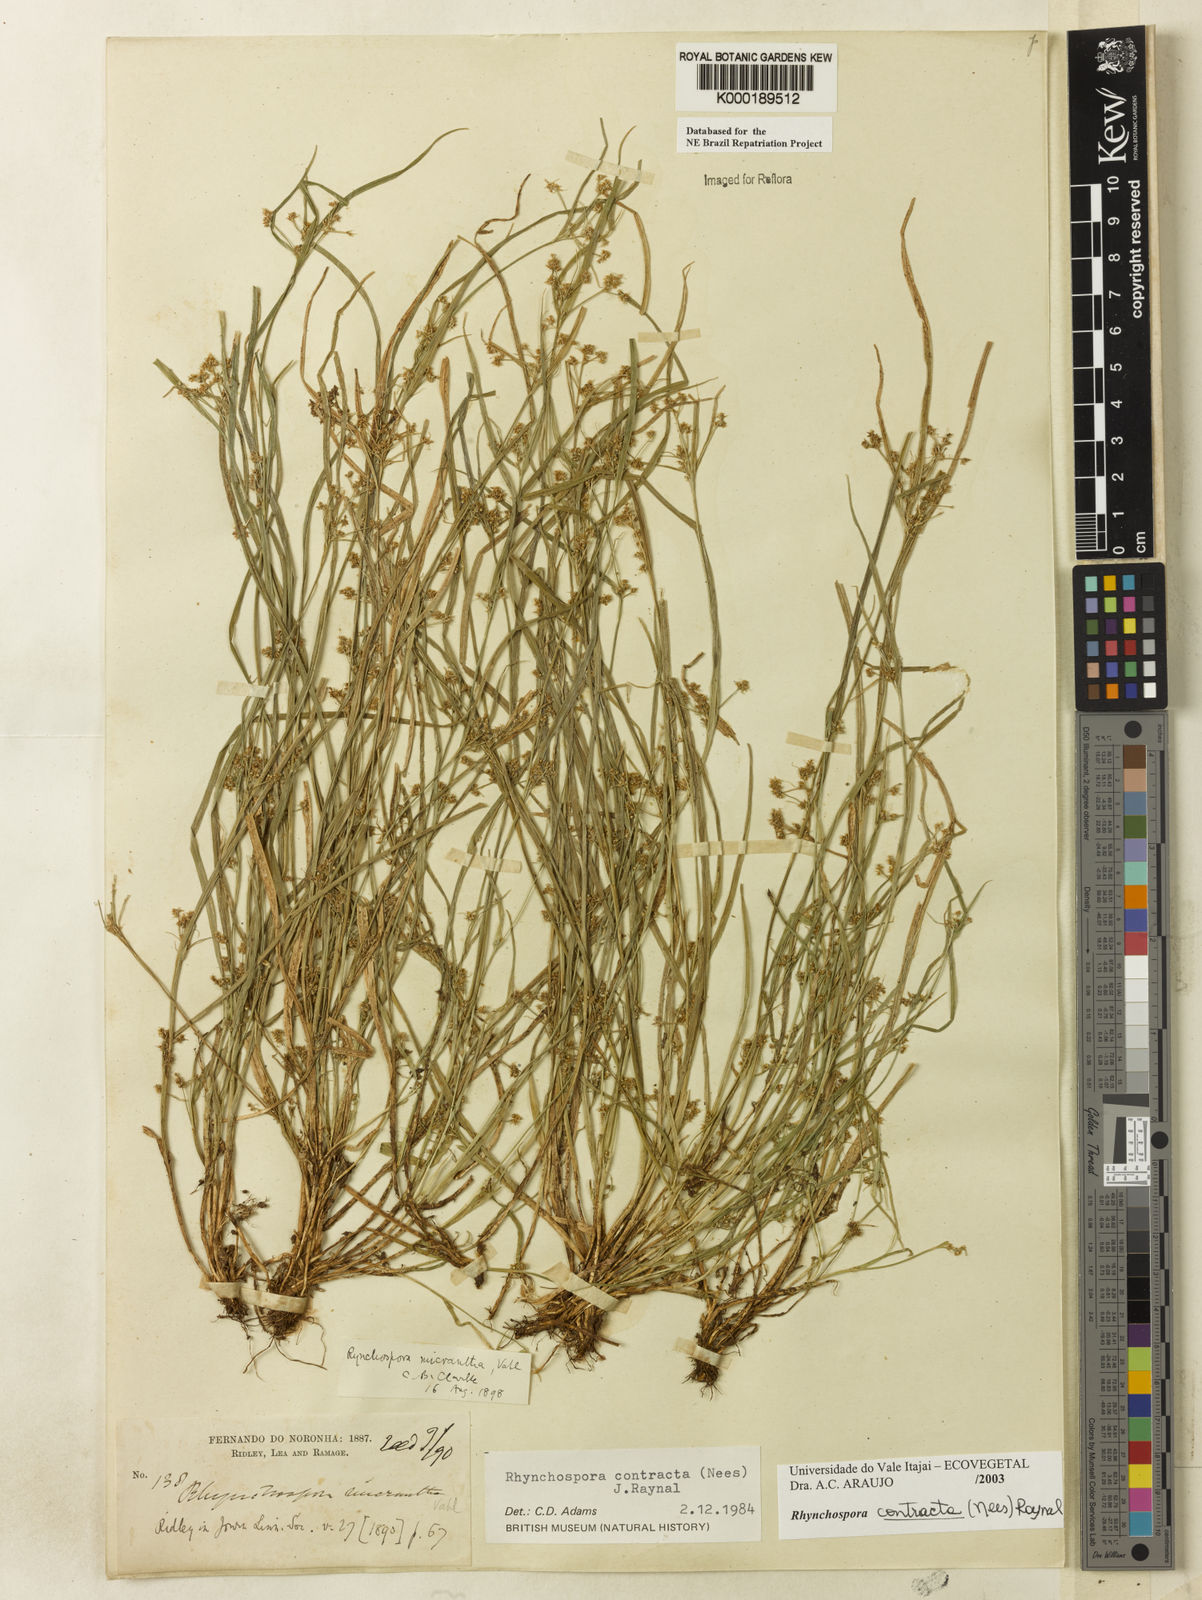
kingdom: Plantae
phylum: Tracheophyta
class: Liliopsida
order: Poales
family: Cyperaceae
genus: Rhynchospora
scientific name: Rhynchospora contracta
